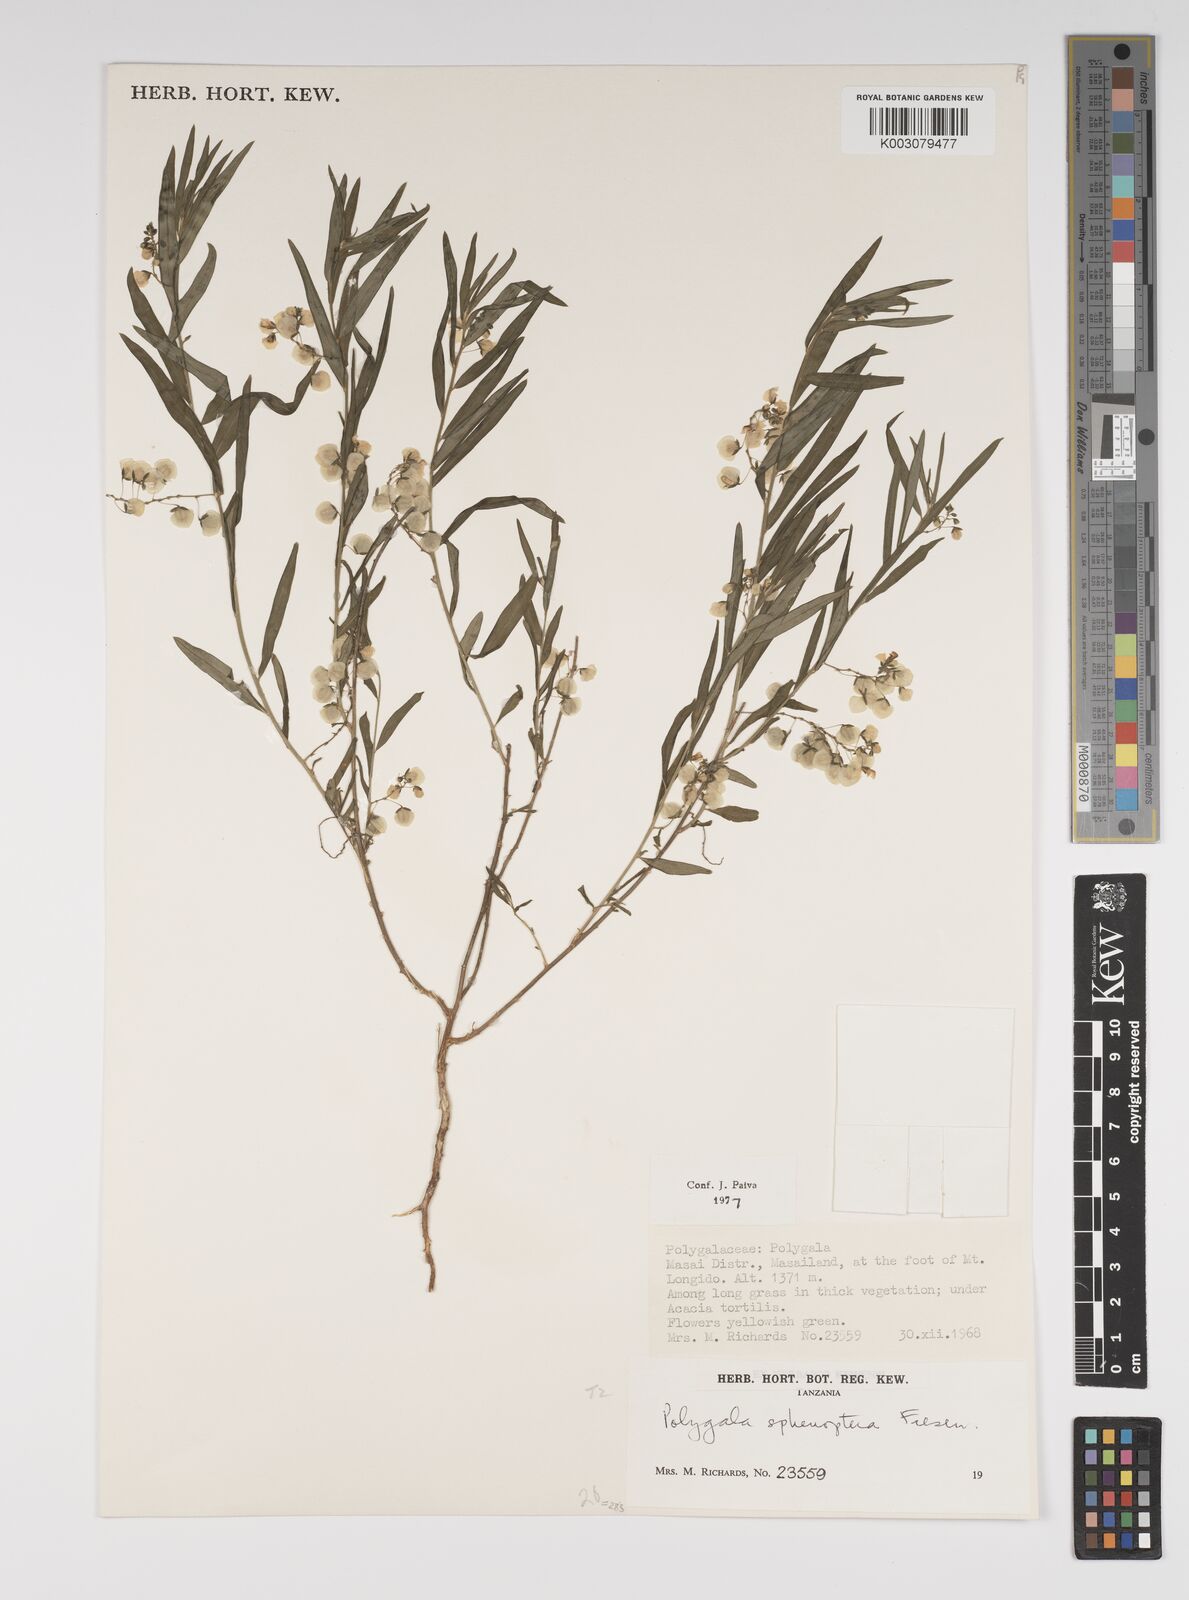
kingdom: Plantae
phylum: Tracheophyta
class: Magnoliopsida
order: Fabales
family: Polygalaceae
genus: Polygala
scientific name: Polygala sphenoptera
